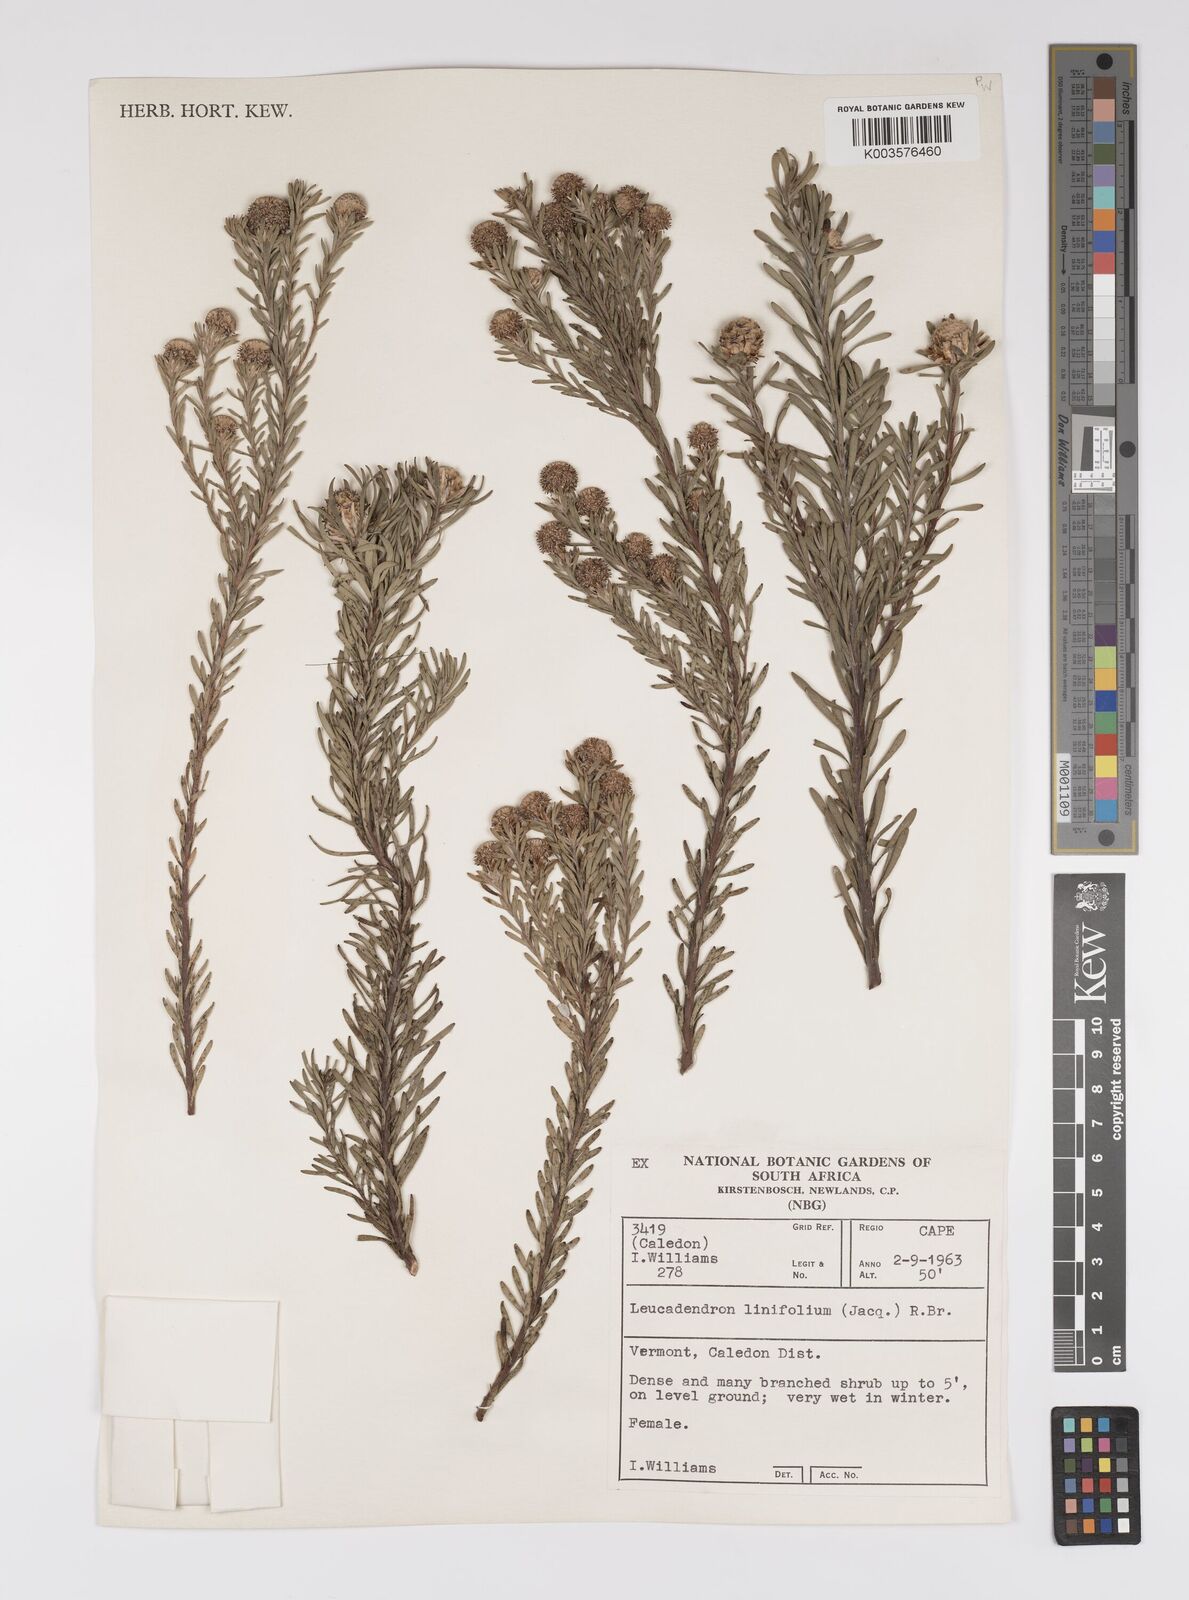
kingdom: Plantae
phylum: Tracheophyta
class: Magnoliopsida
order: Proteales
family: Proteaceae
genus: Leucadendron
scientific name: Leucadendron linifolium
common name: Line-leaf conebush
